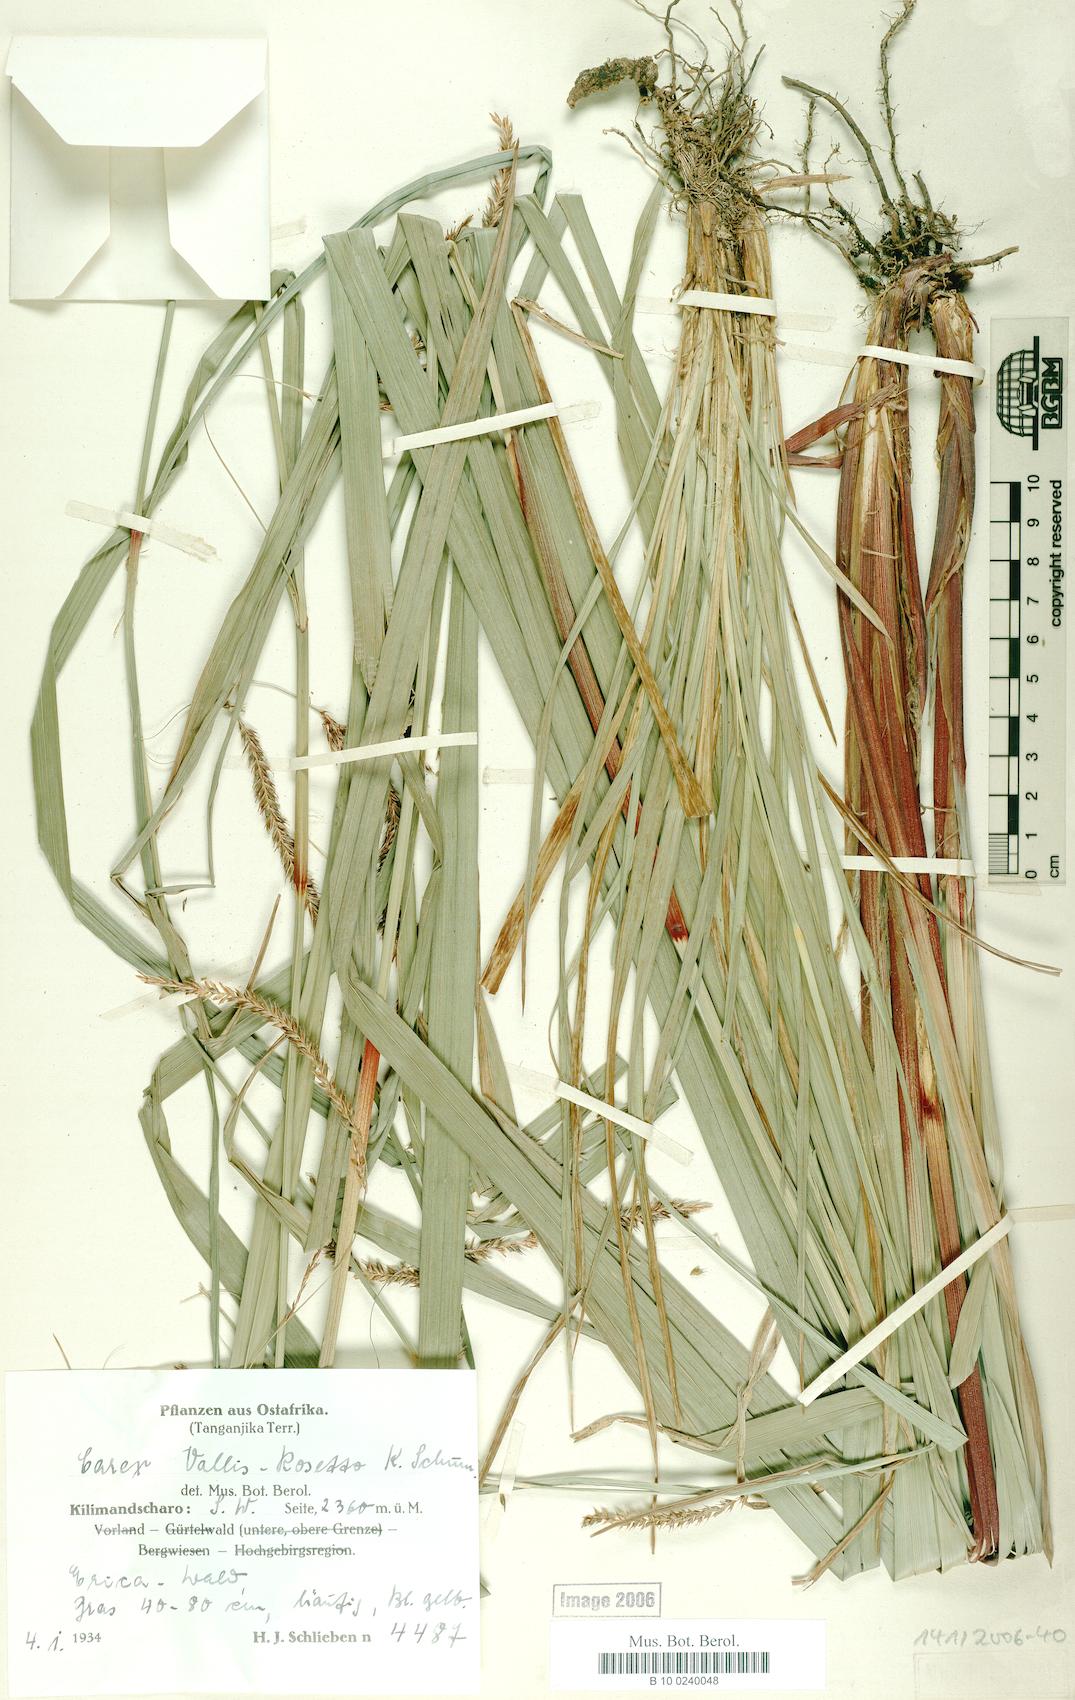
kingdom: Plantae
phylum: Tracheophyta
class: Liliopsida
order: Poales
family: Cyperaceae
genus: Carex
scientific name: Carex fischeri
